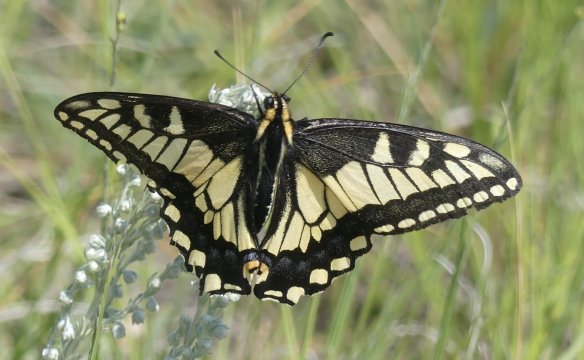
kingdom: Animalia
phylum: Arthropoda
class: Insecta
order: Lepidoptera
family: Papilionidae
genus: Papilio
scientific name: Papilio machaon
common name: Old World Swallowtail
